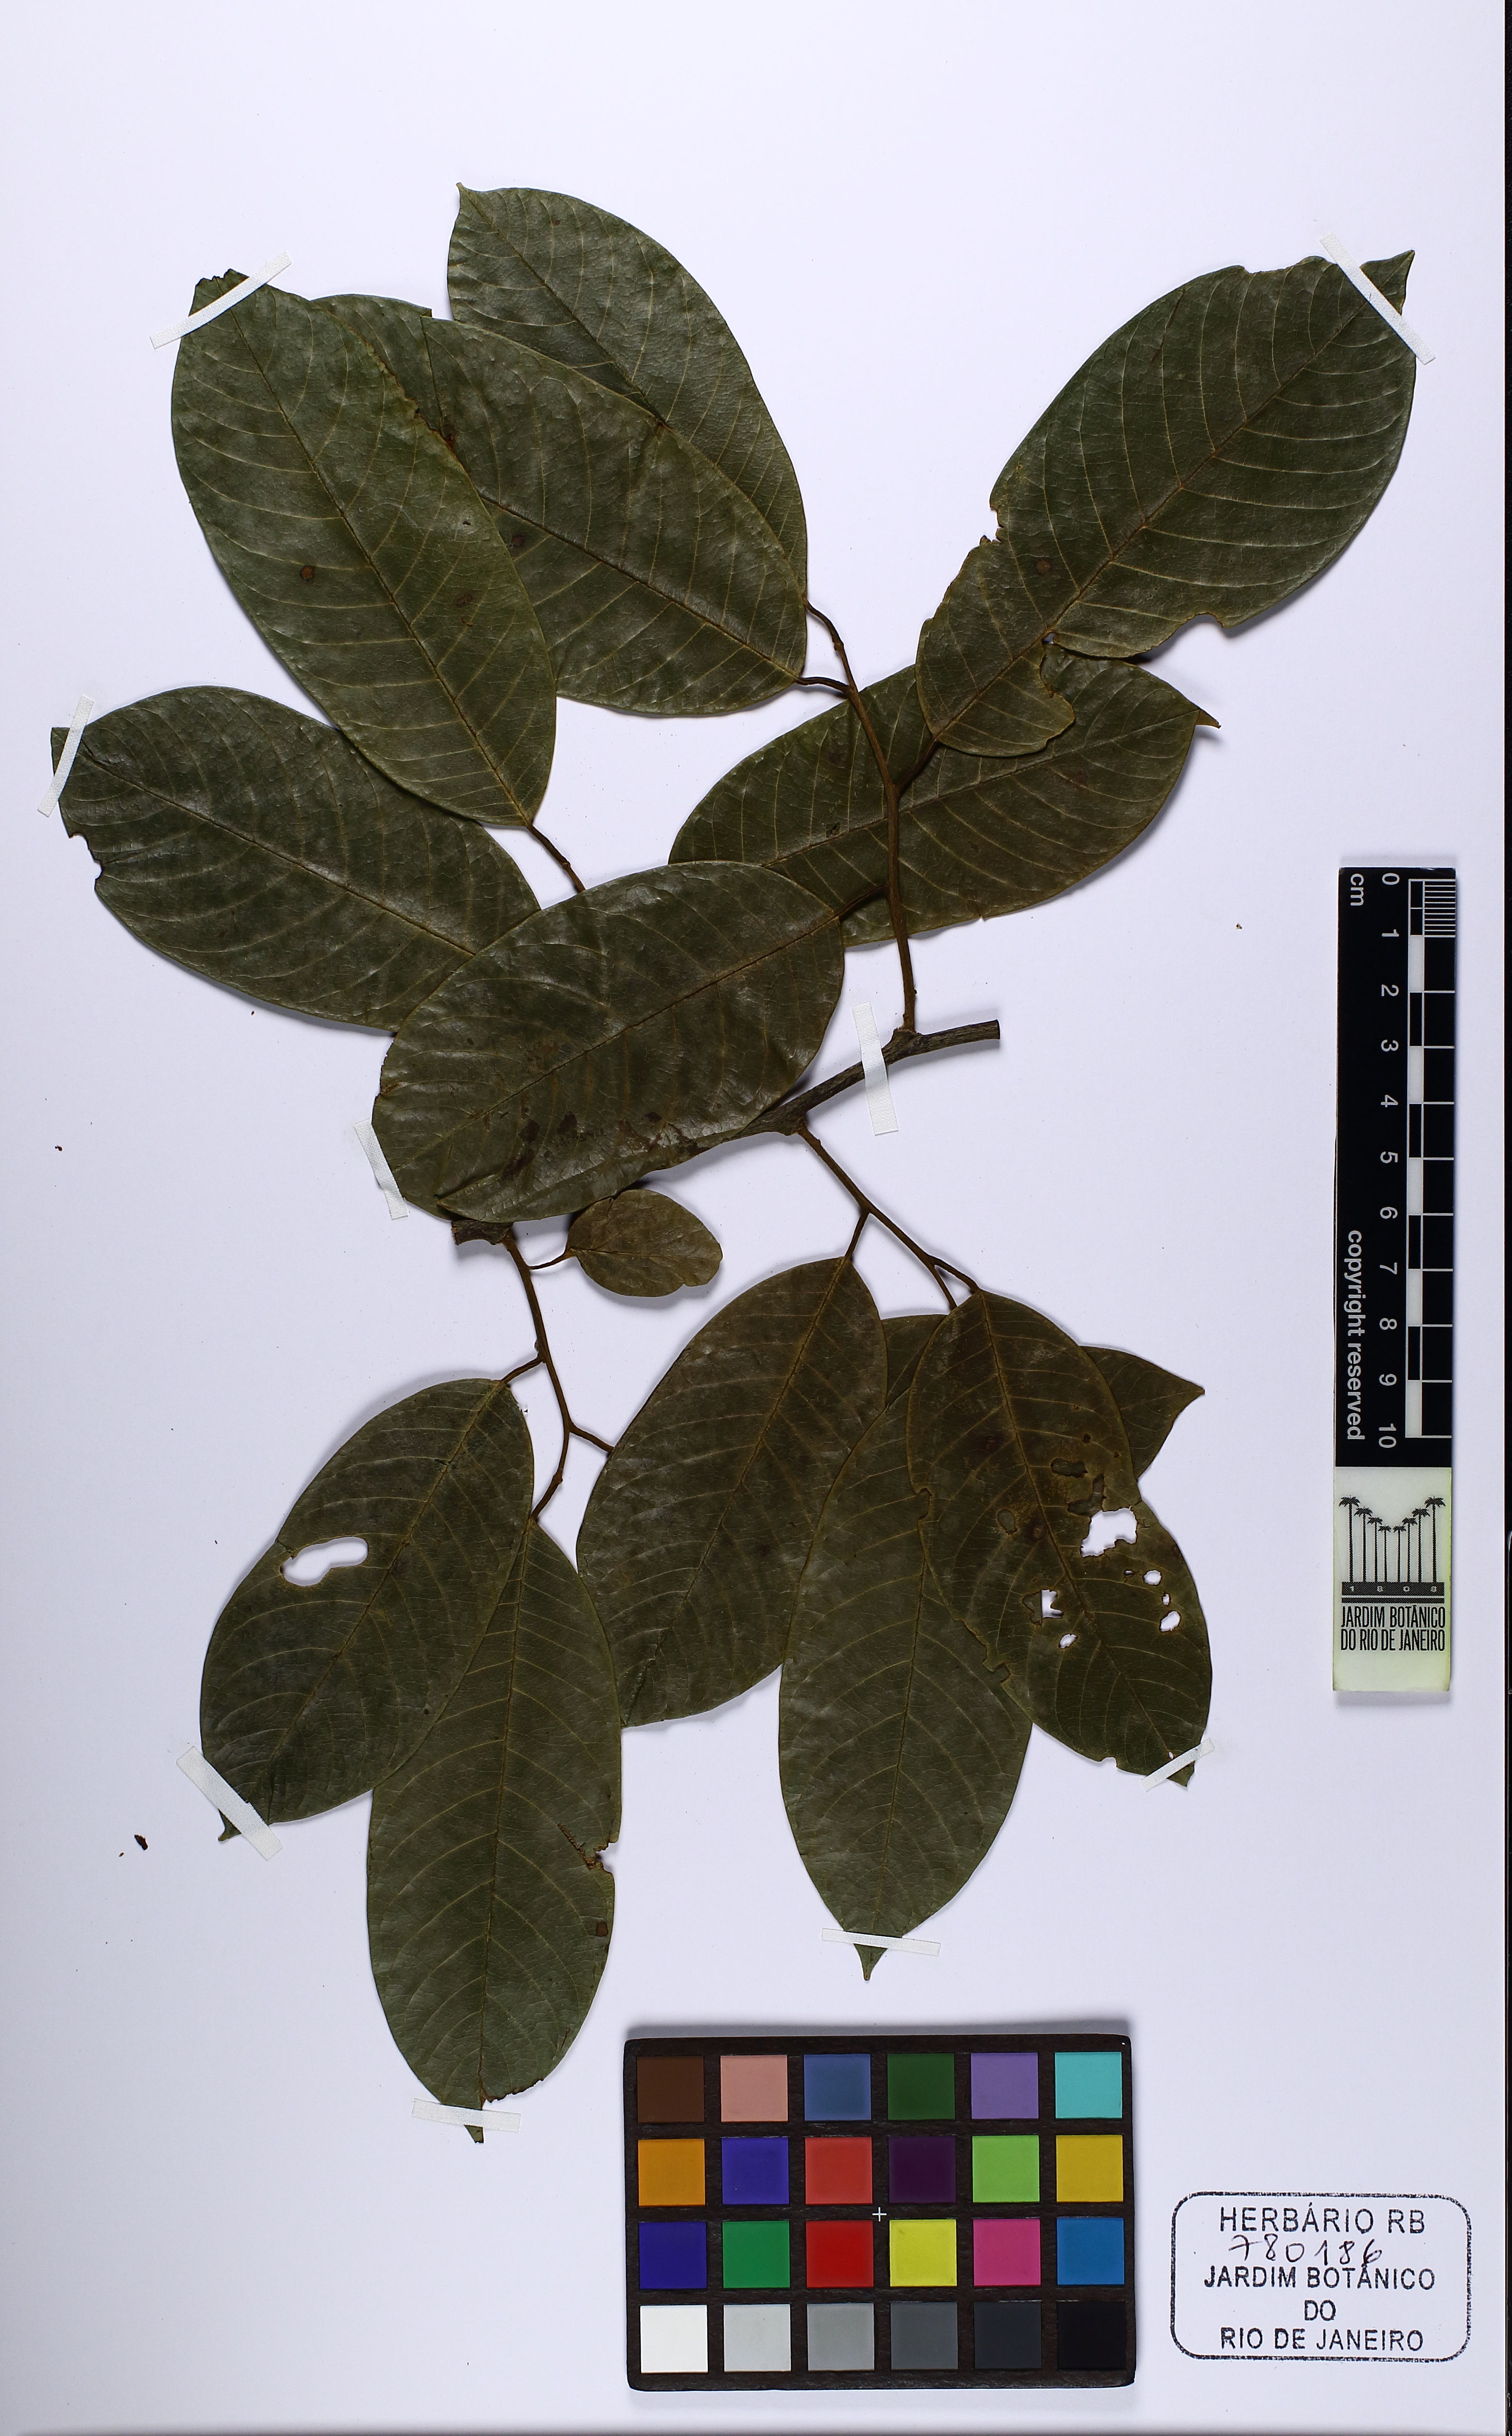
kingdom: Plantae
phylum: Tracheophyta
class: Magnoliopsida
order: Magnoliales
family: Annonaceae
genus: Annona
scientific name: Annona dolabripetala
